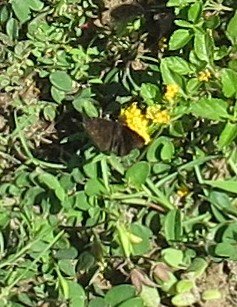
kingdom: Animalia
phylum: Arthropoda
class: Insecta
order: Lepidoptera
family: Hesperiidae
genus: Erynnis
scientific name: Erynnis zarucco
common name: Zarucco Duskywing
